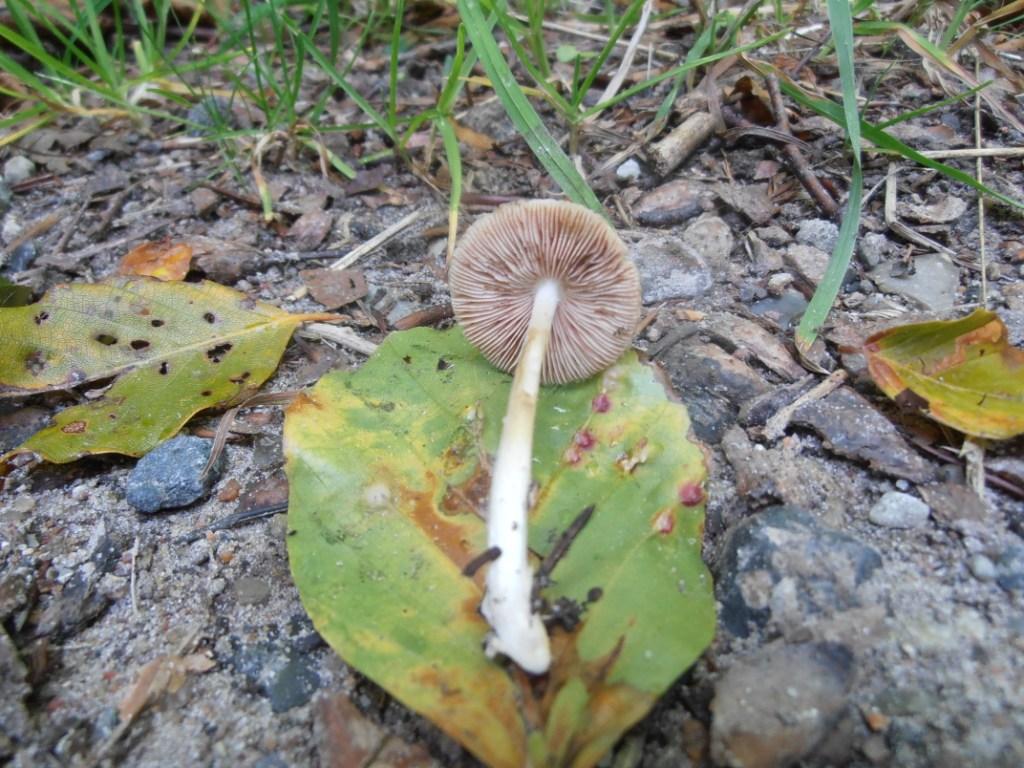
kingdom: Fungi
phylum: Basidiomycota
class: Agaricomycetes
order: Agaricales
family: Pluteaceae
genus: Volvariella
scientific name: Volvariella hypopithys
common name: dunstokket posesvamp
